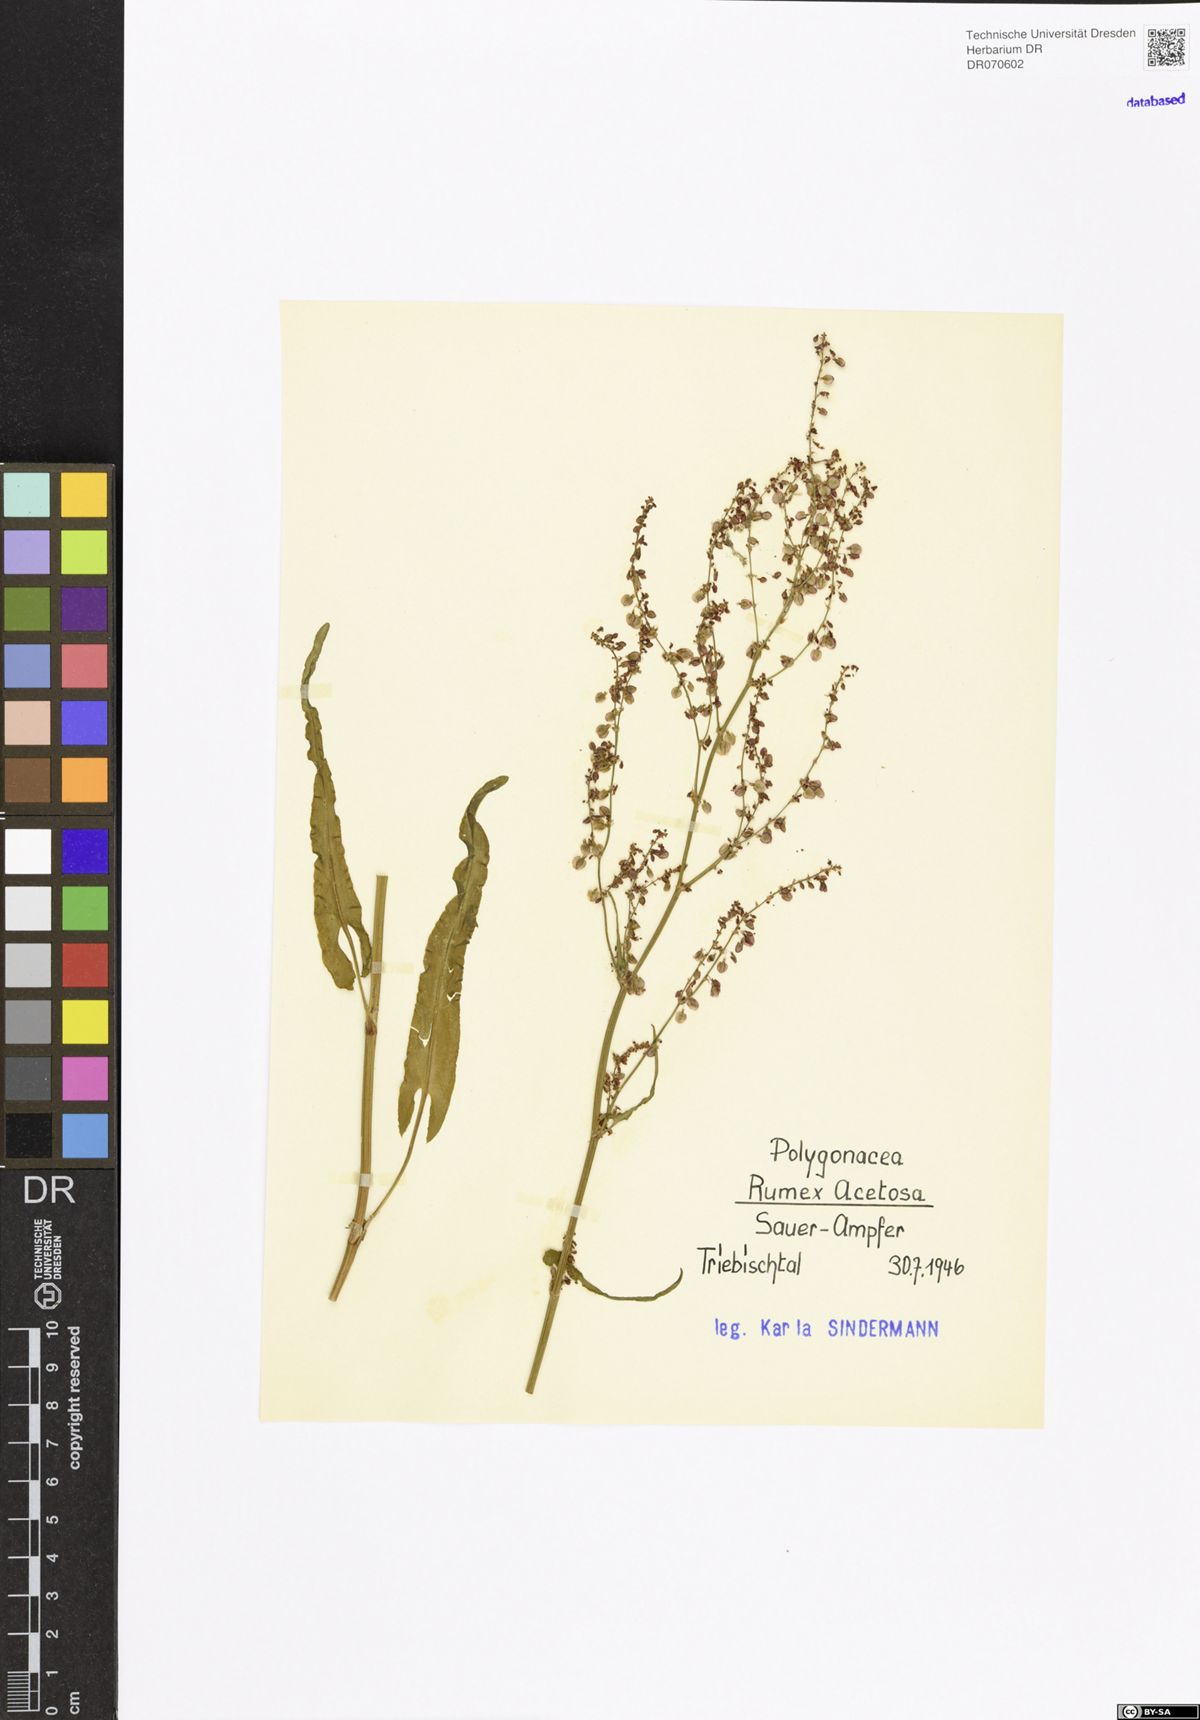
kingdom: Plantae
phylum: Tracheophyta
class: Magnoliopsida
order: Caryophyllales
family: Polygonaceae
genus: Rumex
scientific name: Rumex acetosa
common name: Garden sorrel
